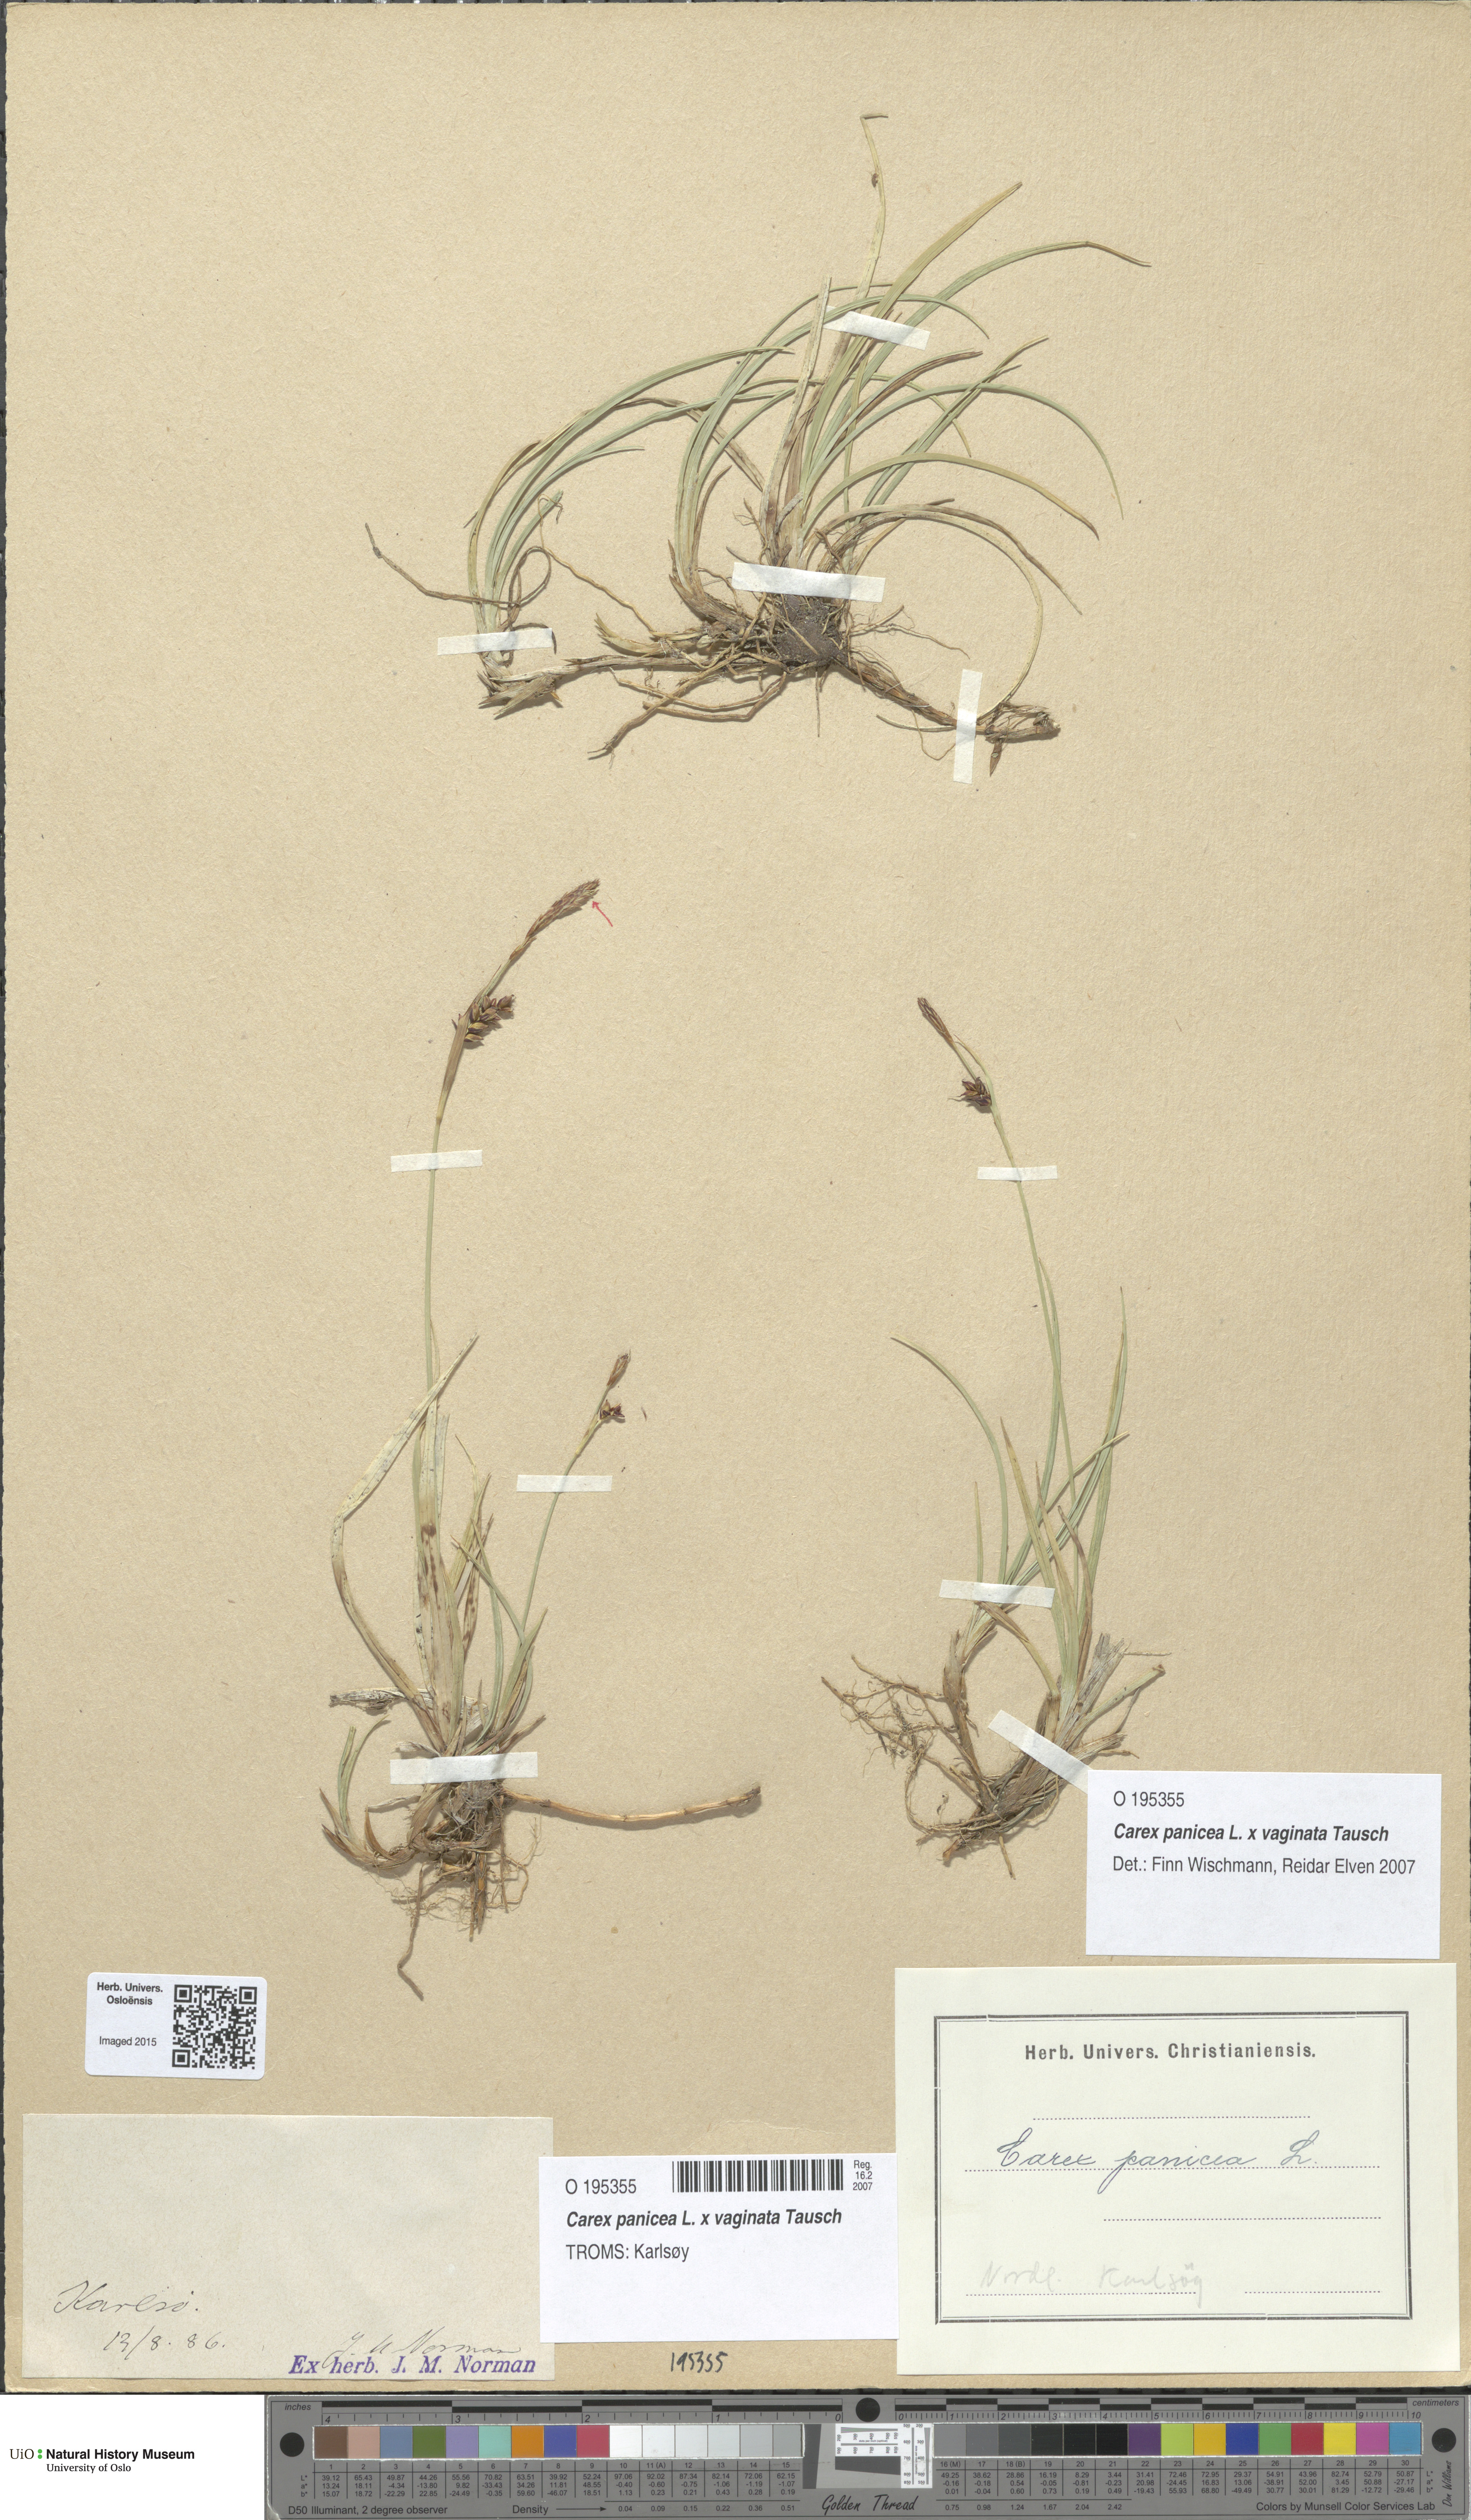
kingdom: Plantae
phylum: Tracheophyta
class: Liliopsida
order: Poales
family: Cyperaceae
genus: Carex
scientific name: Carex
